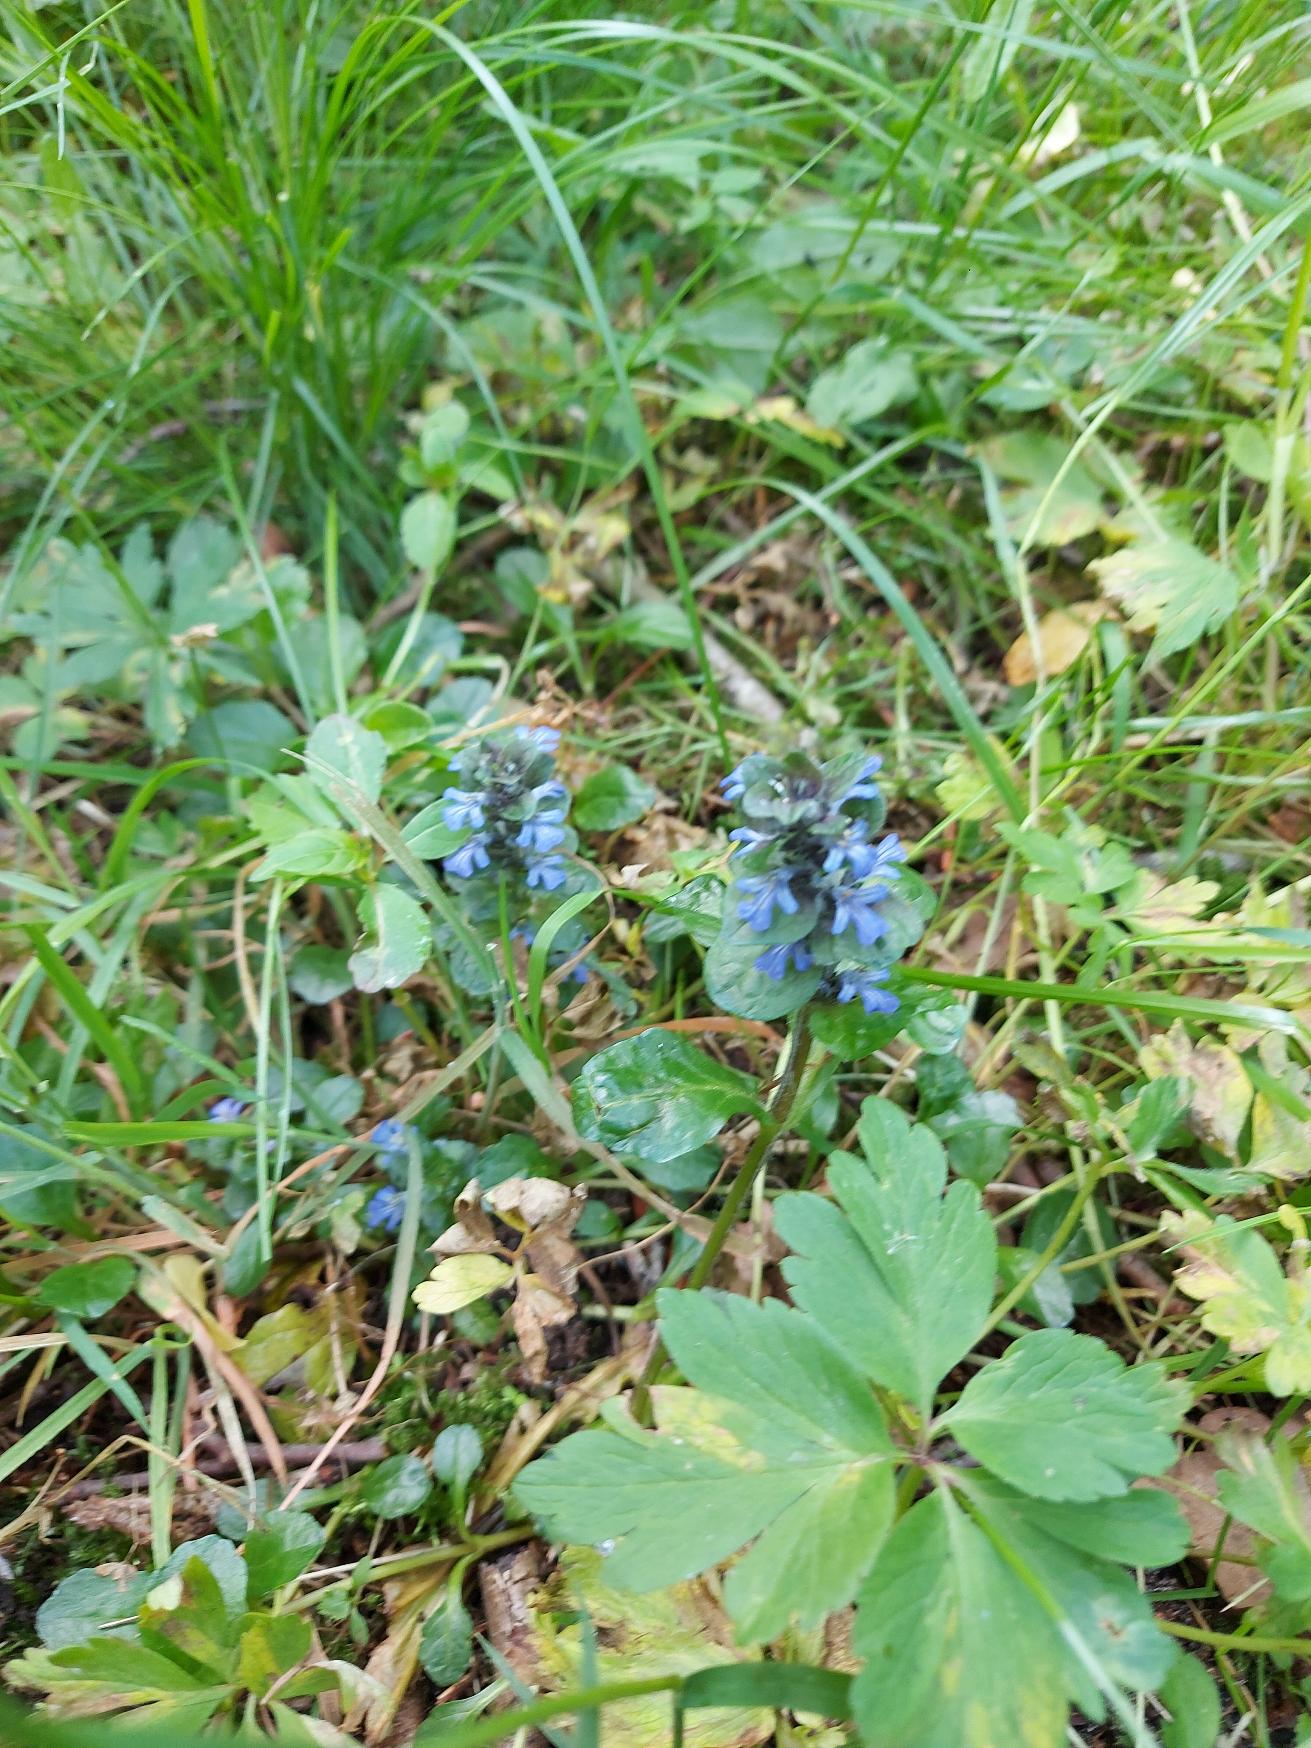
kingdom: Plantae
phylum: Tracheophyta
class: Magnoliopsida
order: Lamiales
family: Lamiaceae
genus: Ajuga
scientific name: Ajuga reptans
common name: Krybende læbeløs
